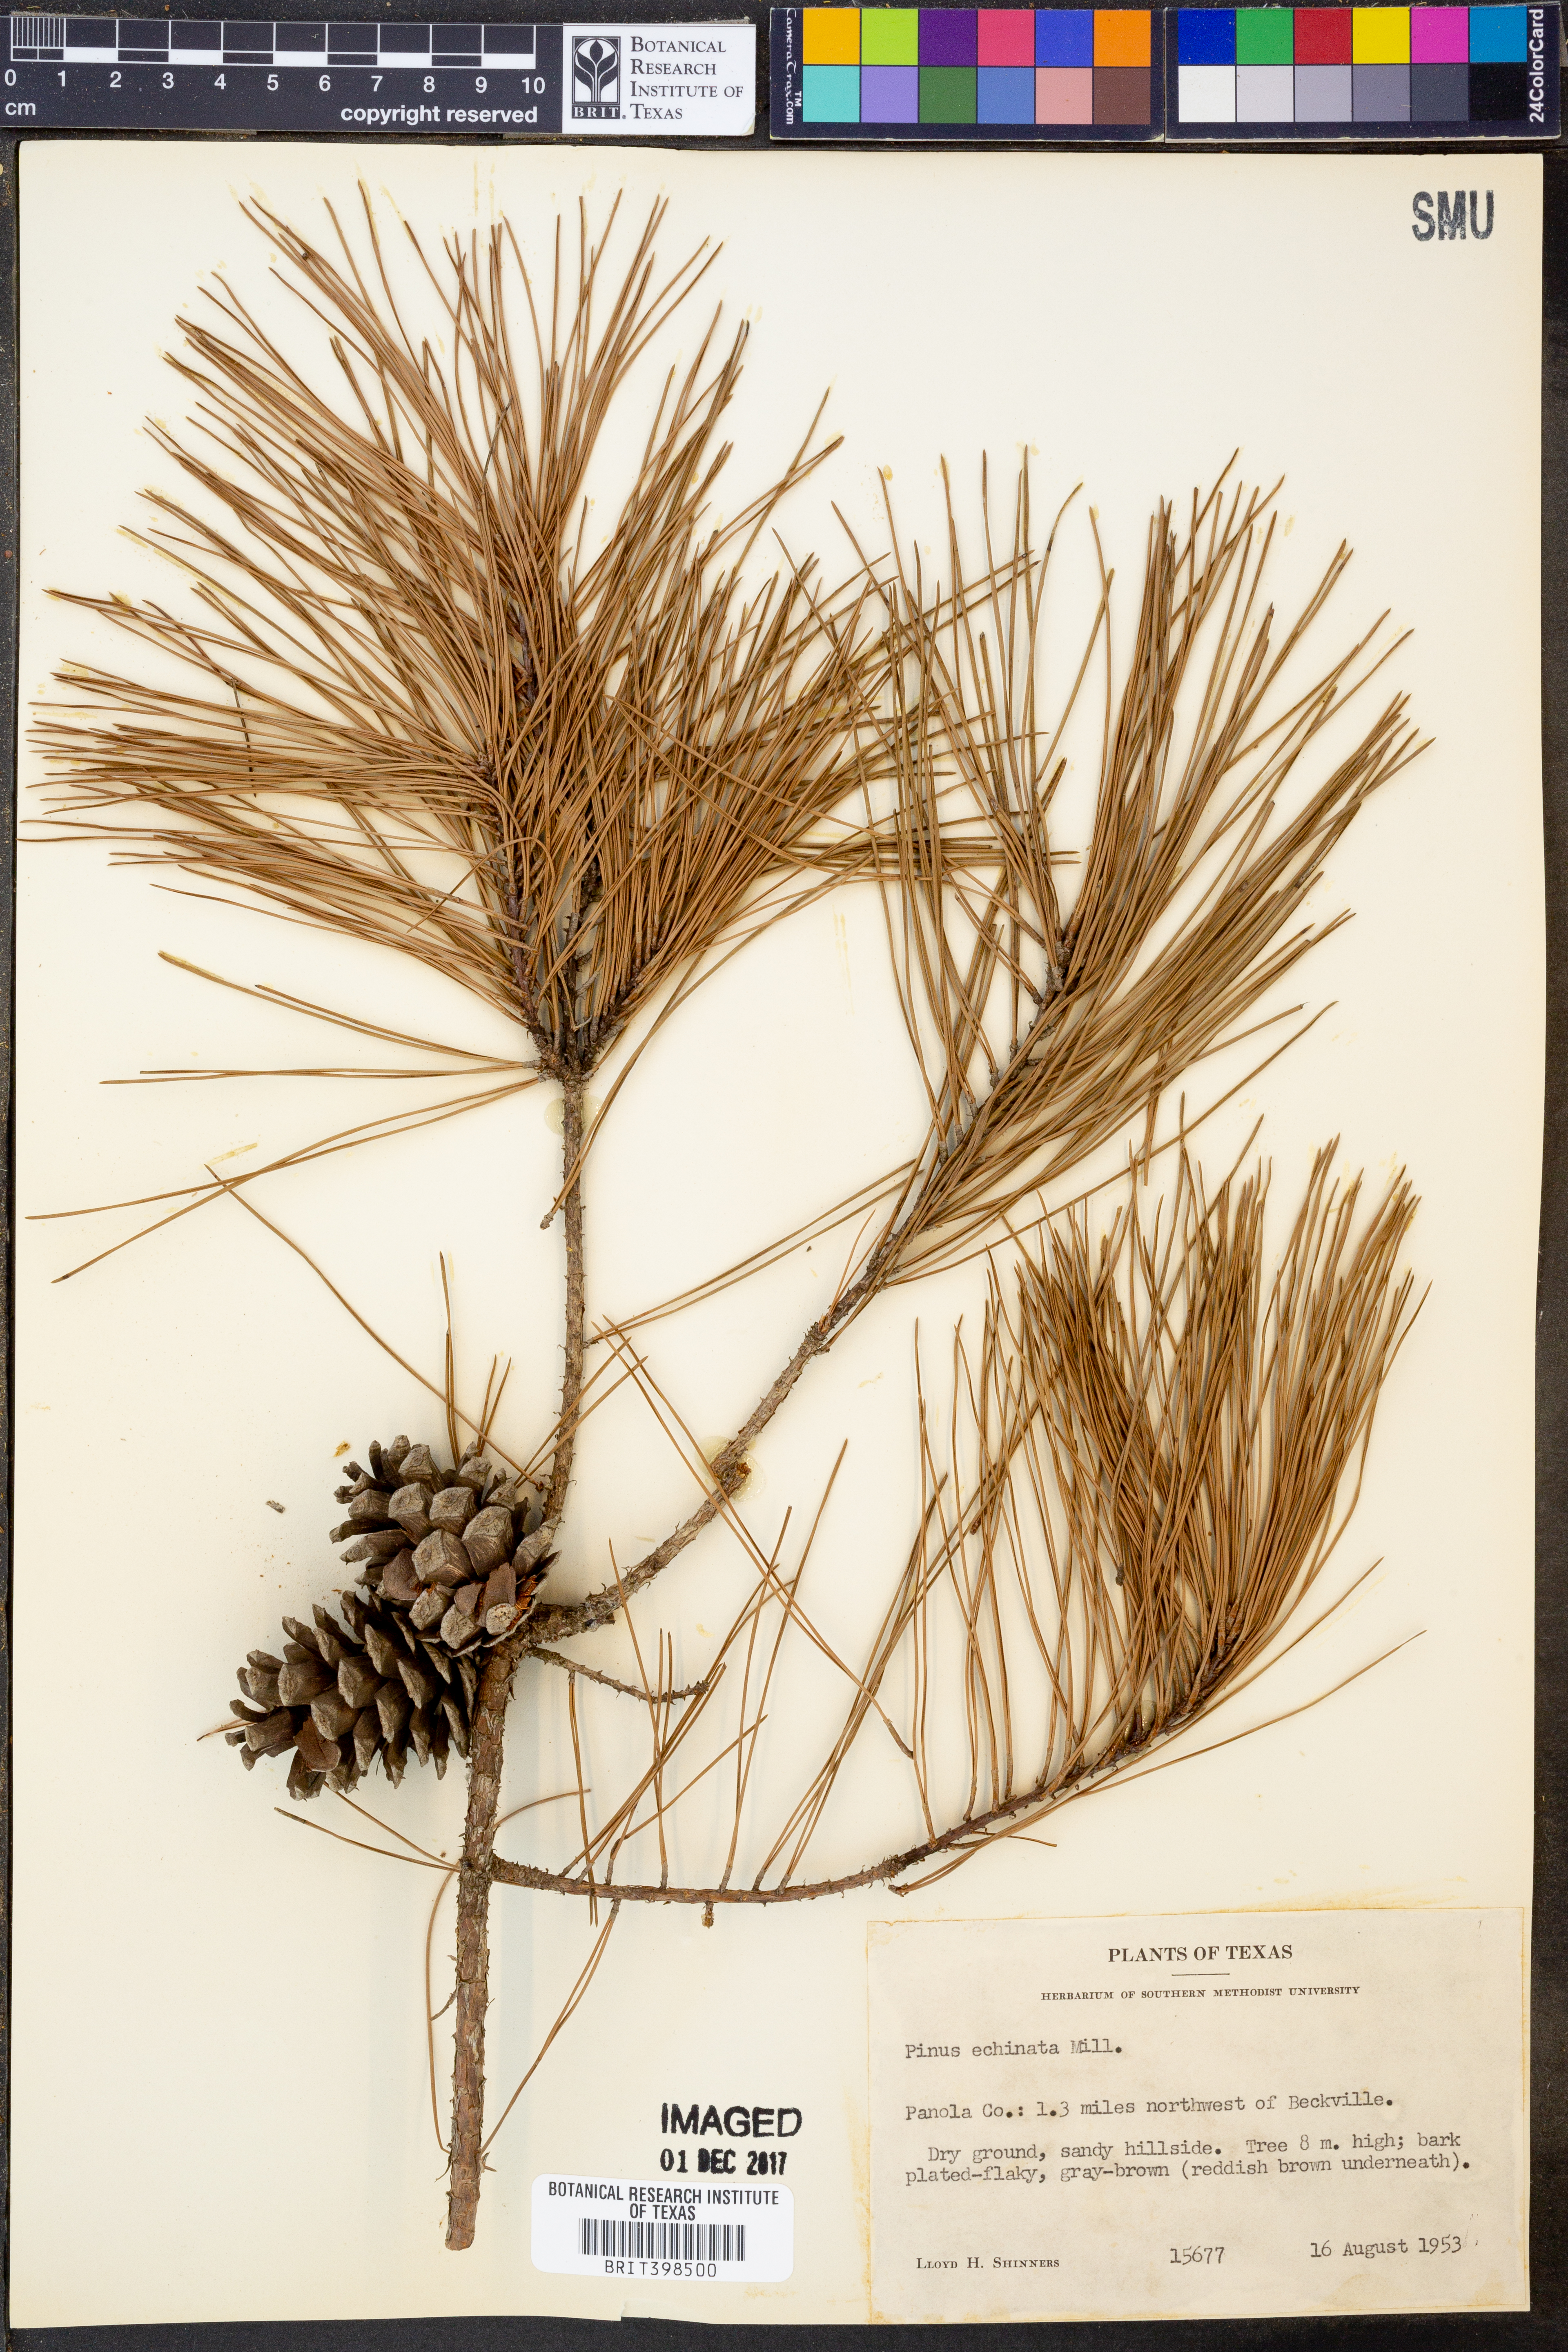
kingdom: Plantae
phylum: Tracheophyta
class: Pinopsida
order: Pinales
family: Pinaceae
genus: Pinus
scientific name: Pinus echinata
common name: Shortleaf pine
